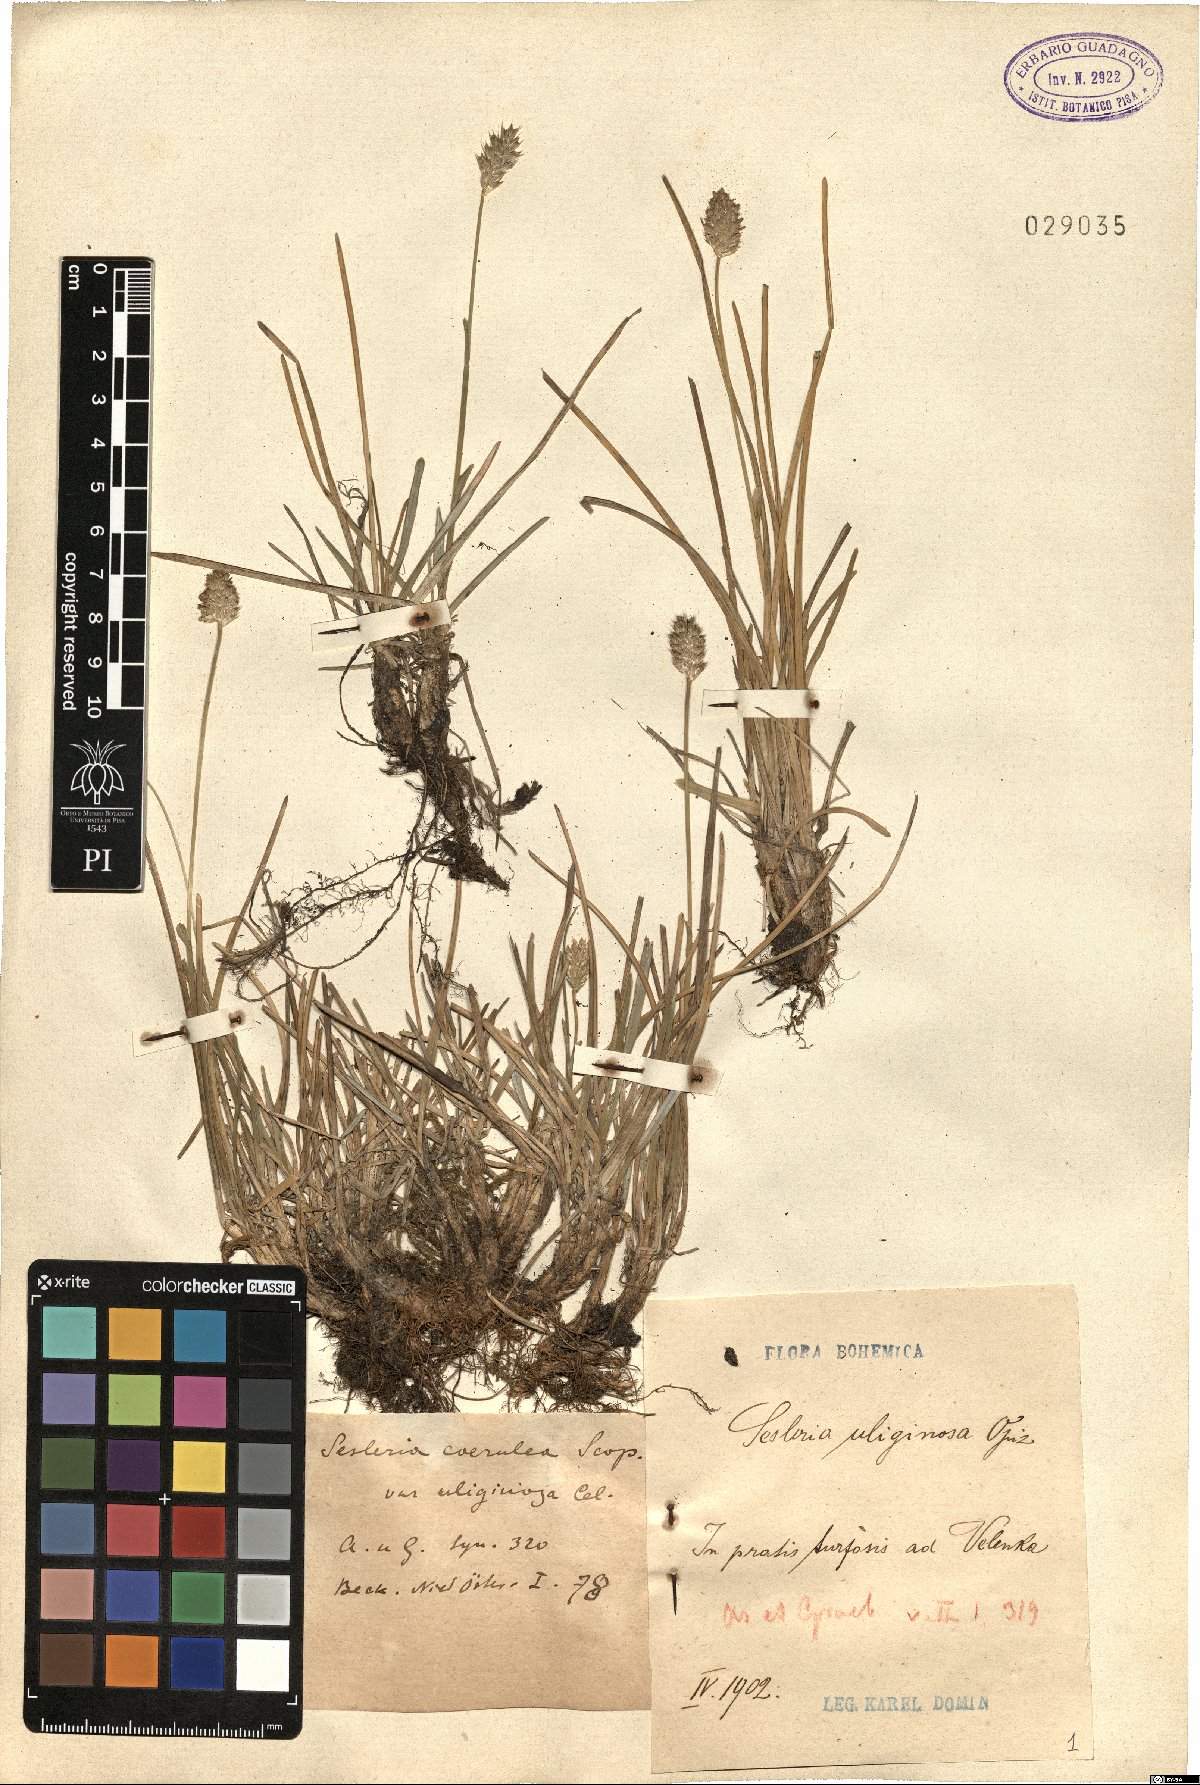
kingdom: Plantae
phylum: Tracheophyta
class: Liliopsida
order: Poales
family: Poaceae
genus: Sesleria
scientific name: Sesleria uliginosa
